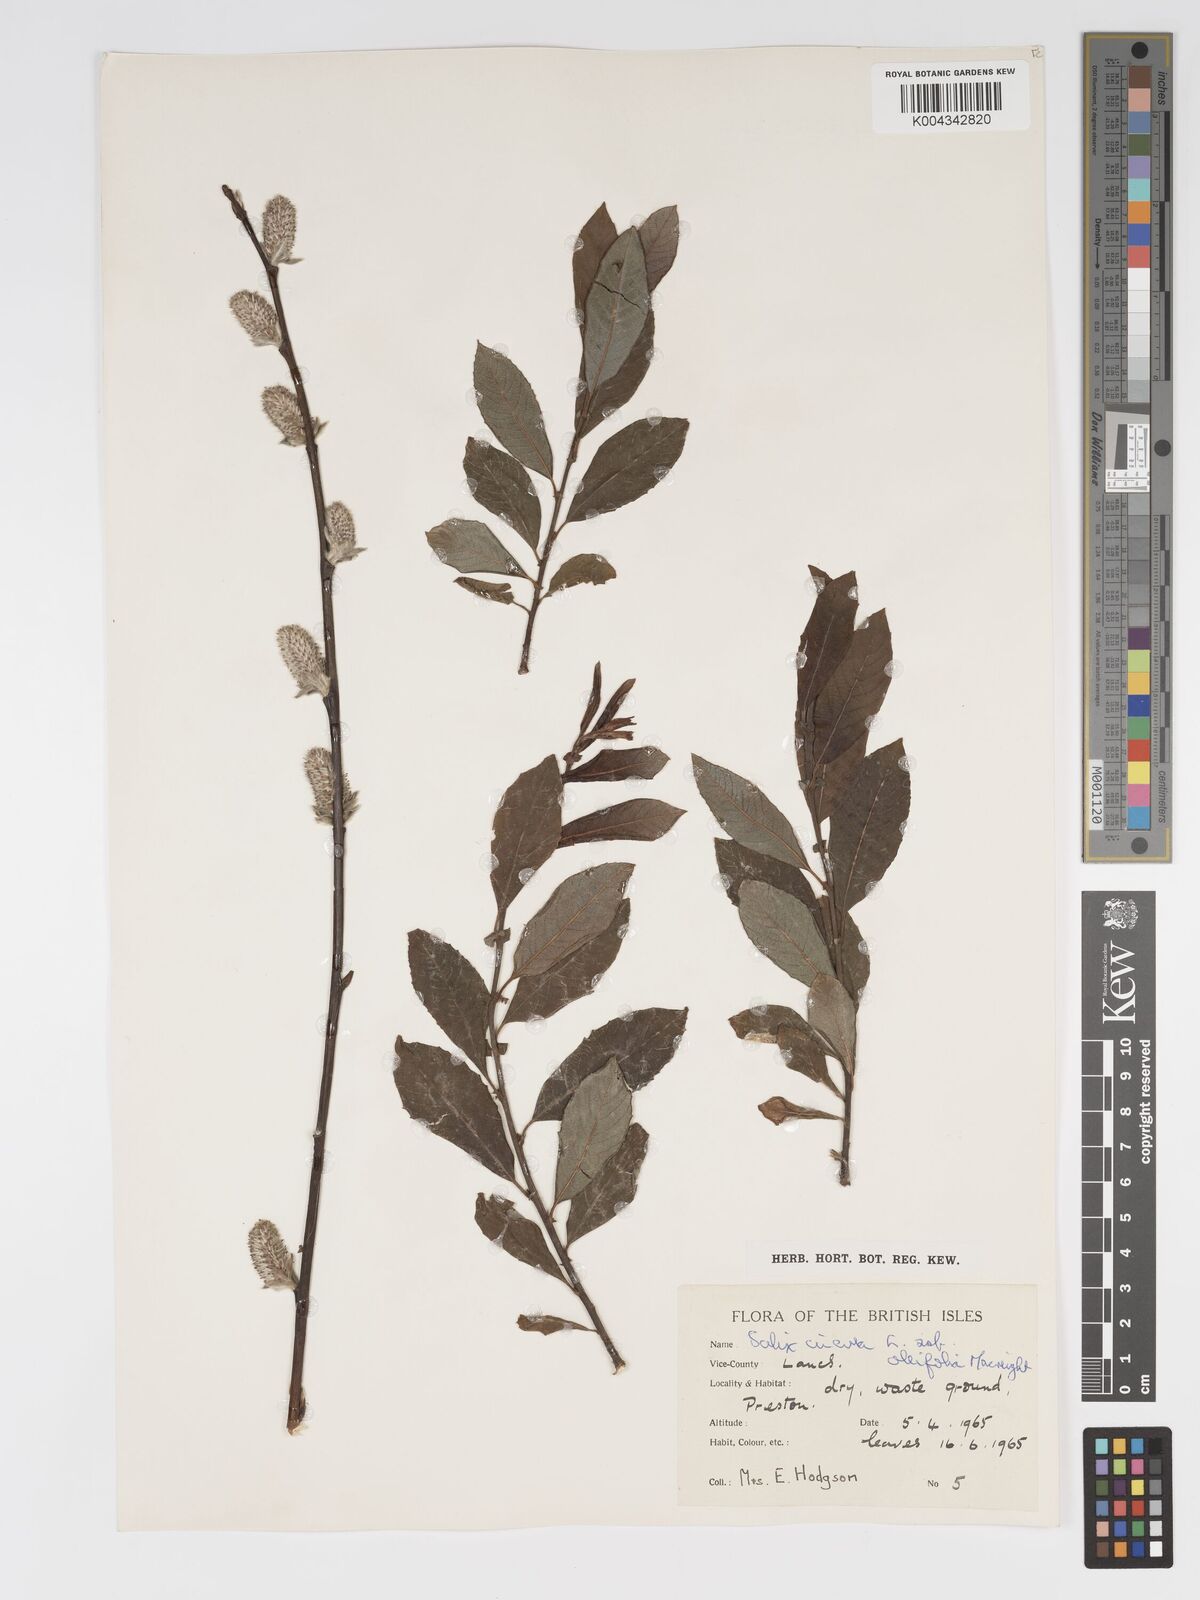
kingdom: Plantae
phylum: Tracheophyta
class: Magnoliopsida
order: Malpighiales
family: Salicaceae
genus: Salix
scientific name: Salix atrocinerea
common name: Rusty willow
